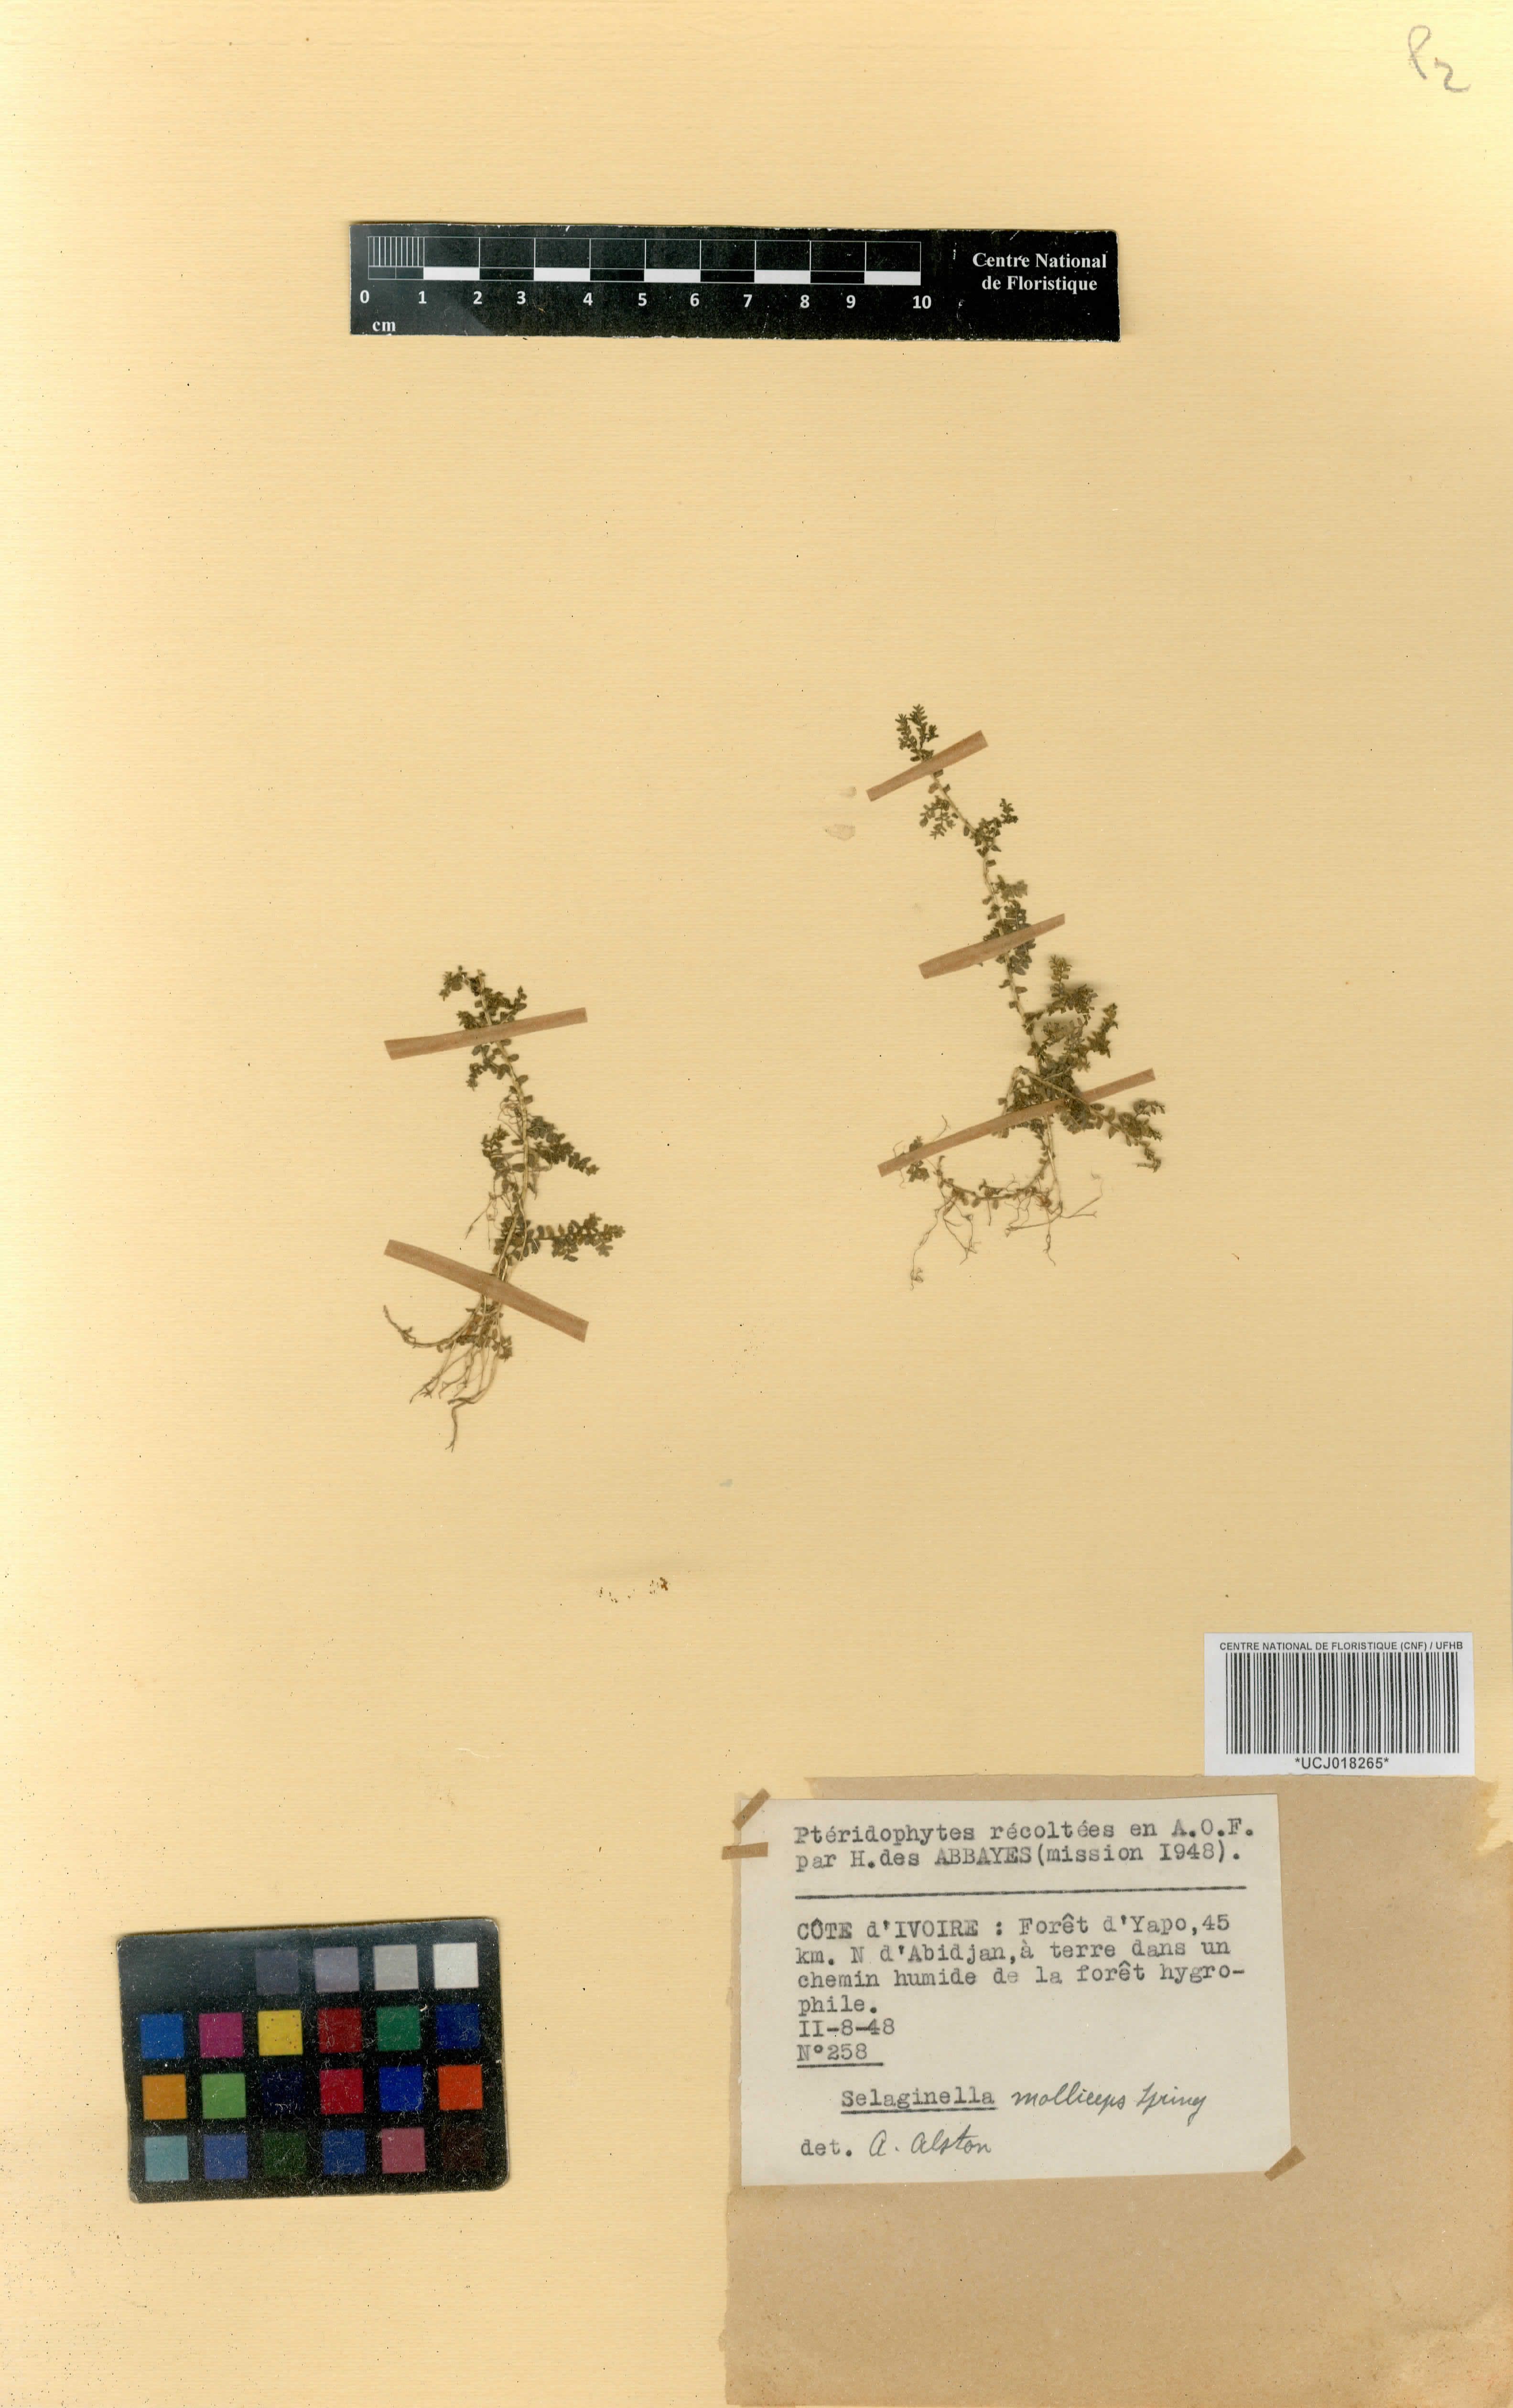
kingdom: Plantae
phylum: Tracheophyta
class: Lycopodiopsida
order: Selaginellales
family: Selaginellaceae
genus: Selaginella
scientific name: Selaginella molliceps
